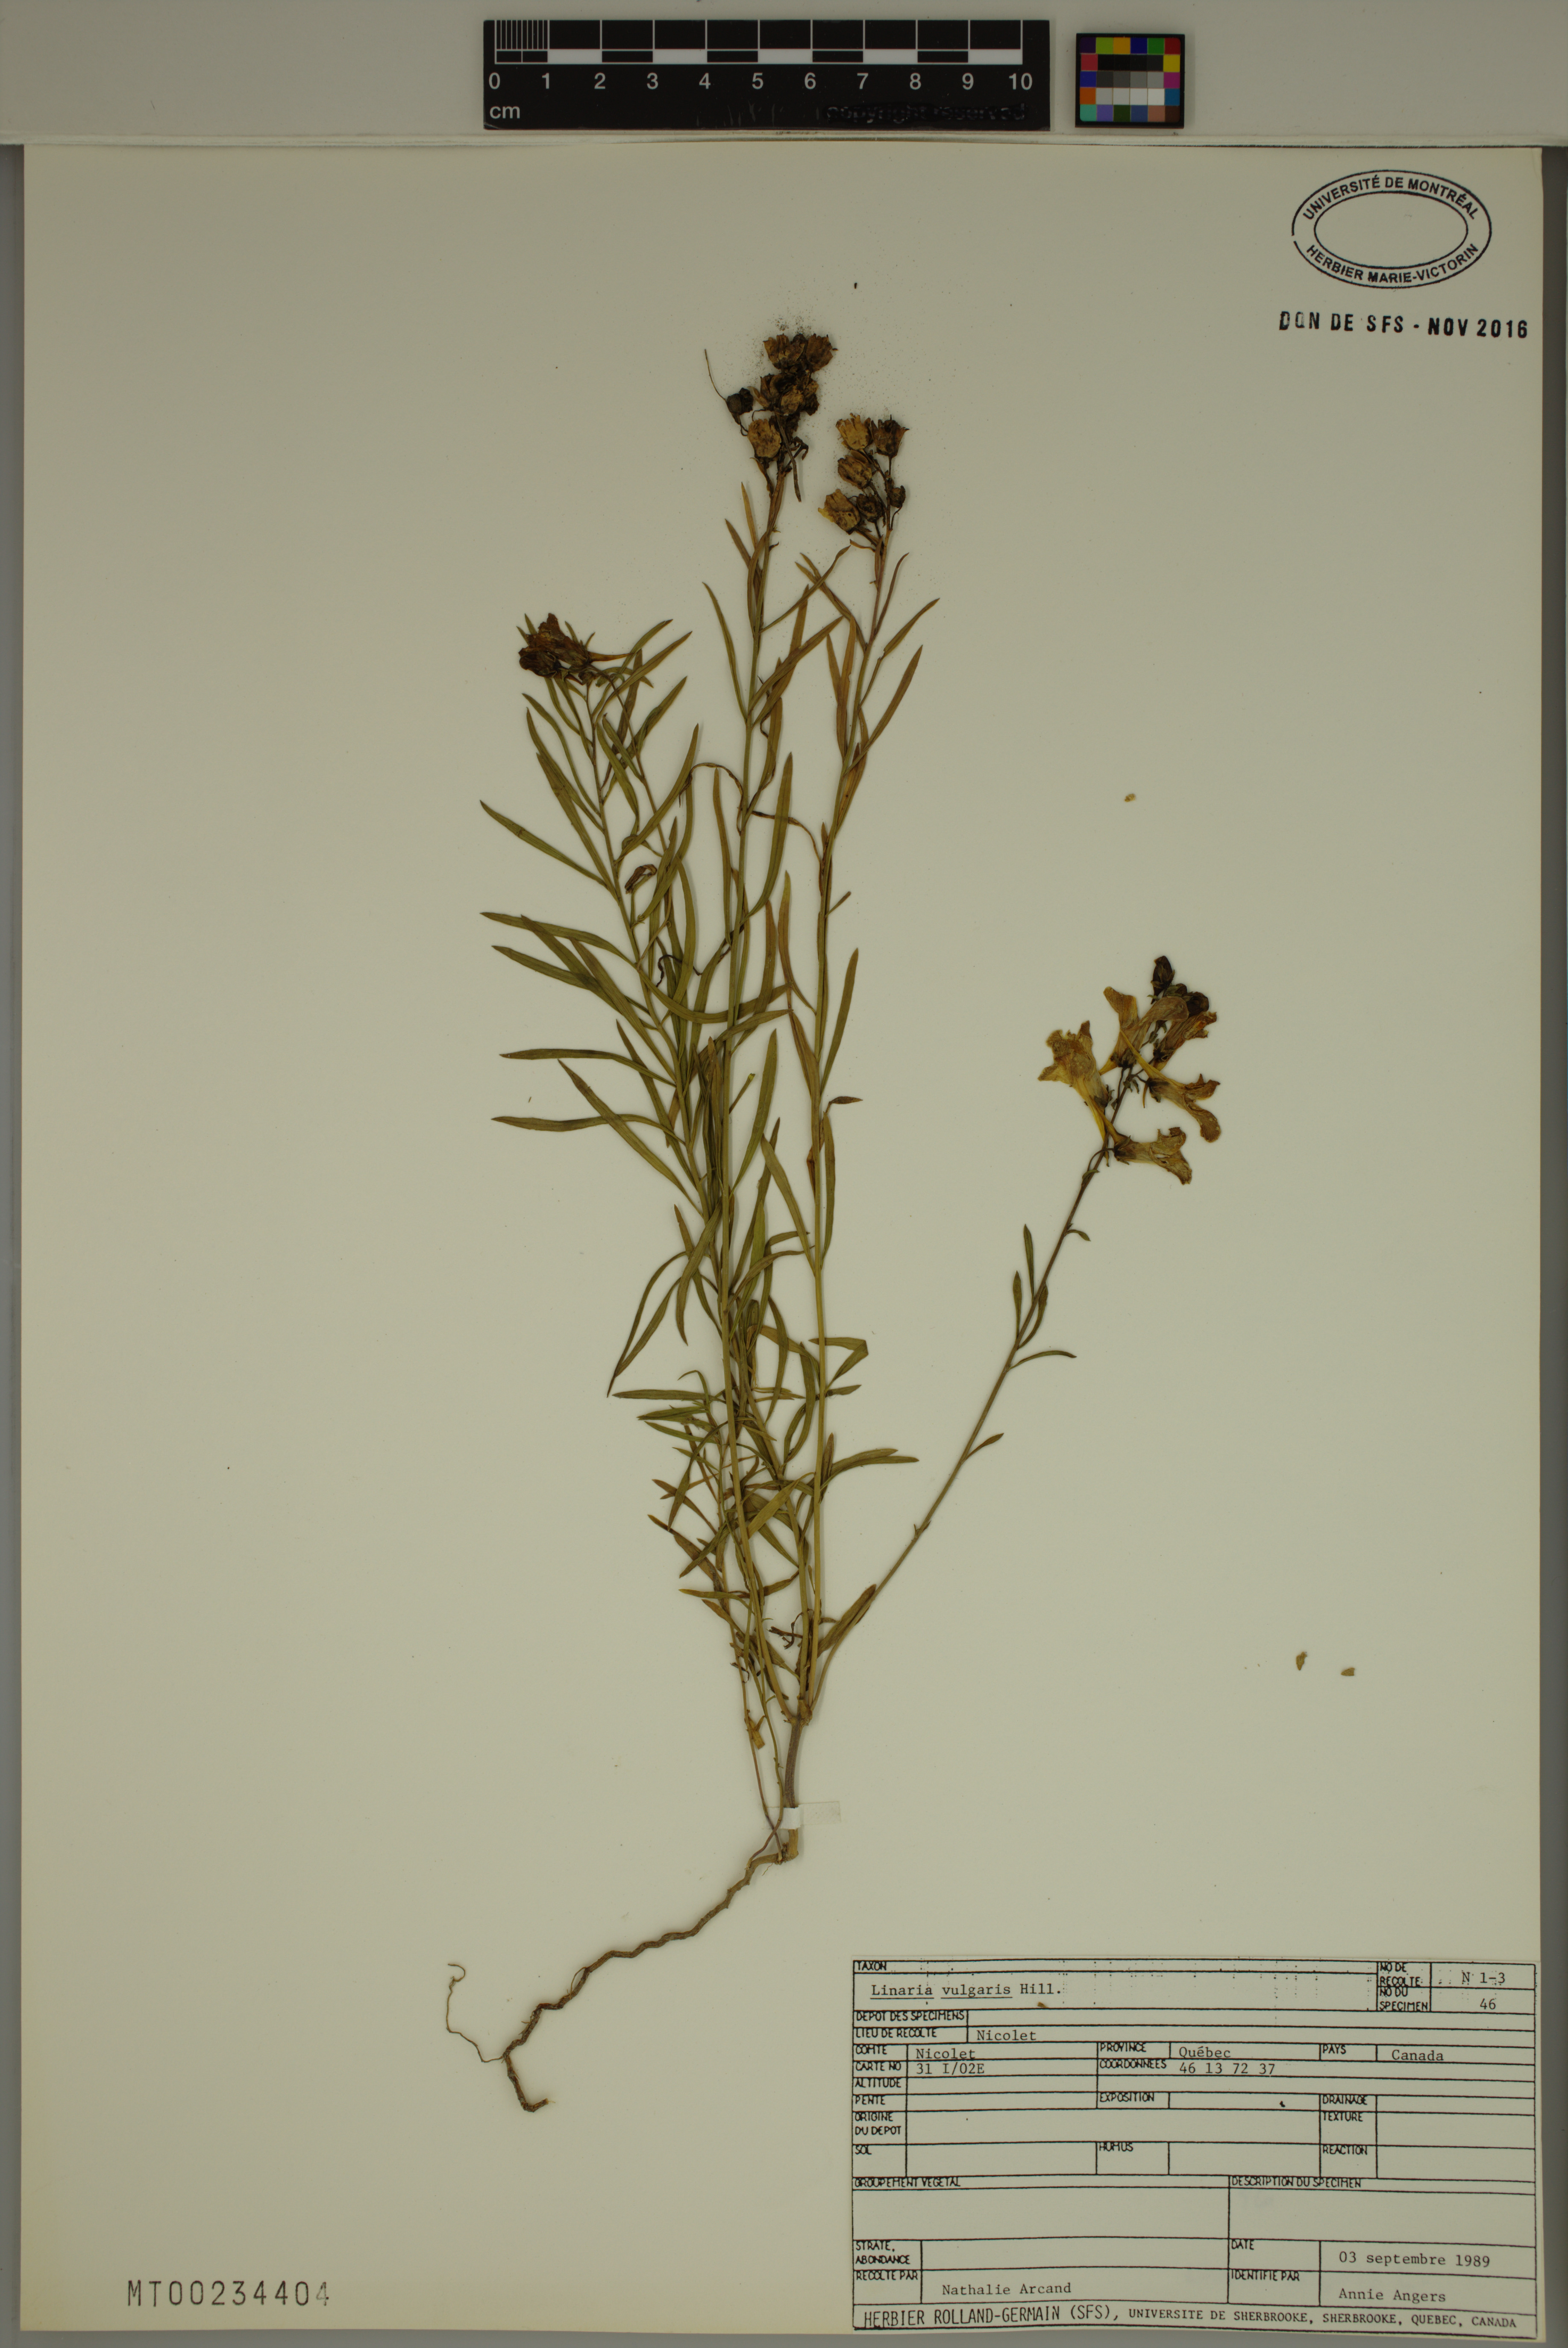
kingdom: Plantae
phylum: Tracheophyta
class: Magnoliopsida
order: Lamiales
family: Plantaginaceae
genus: Linaria
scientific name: Linaria vulgaris
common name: Butter and eggs
